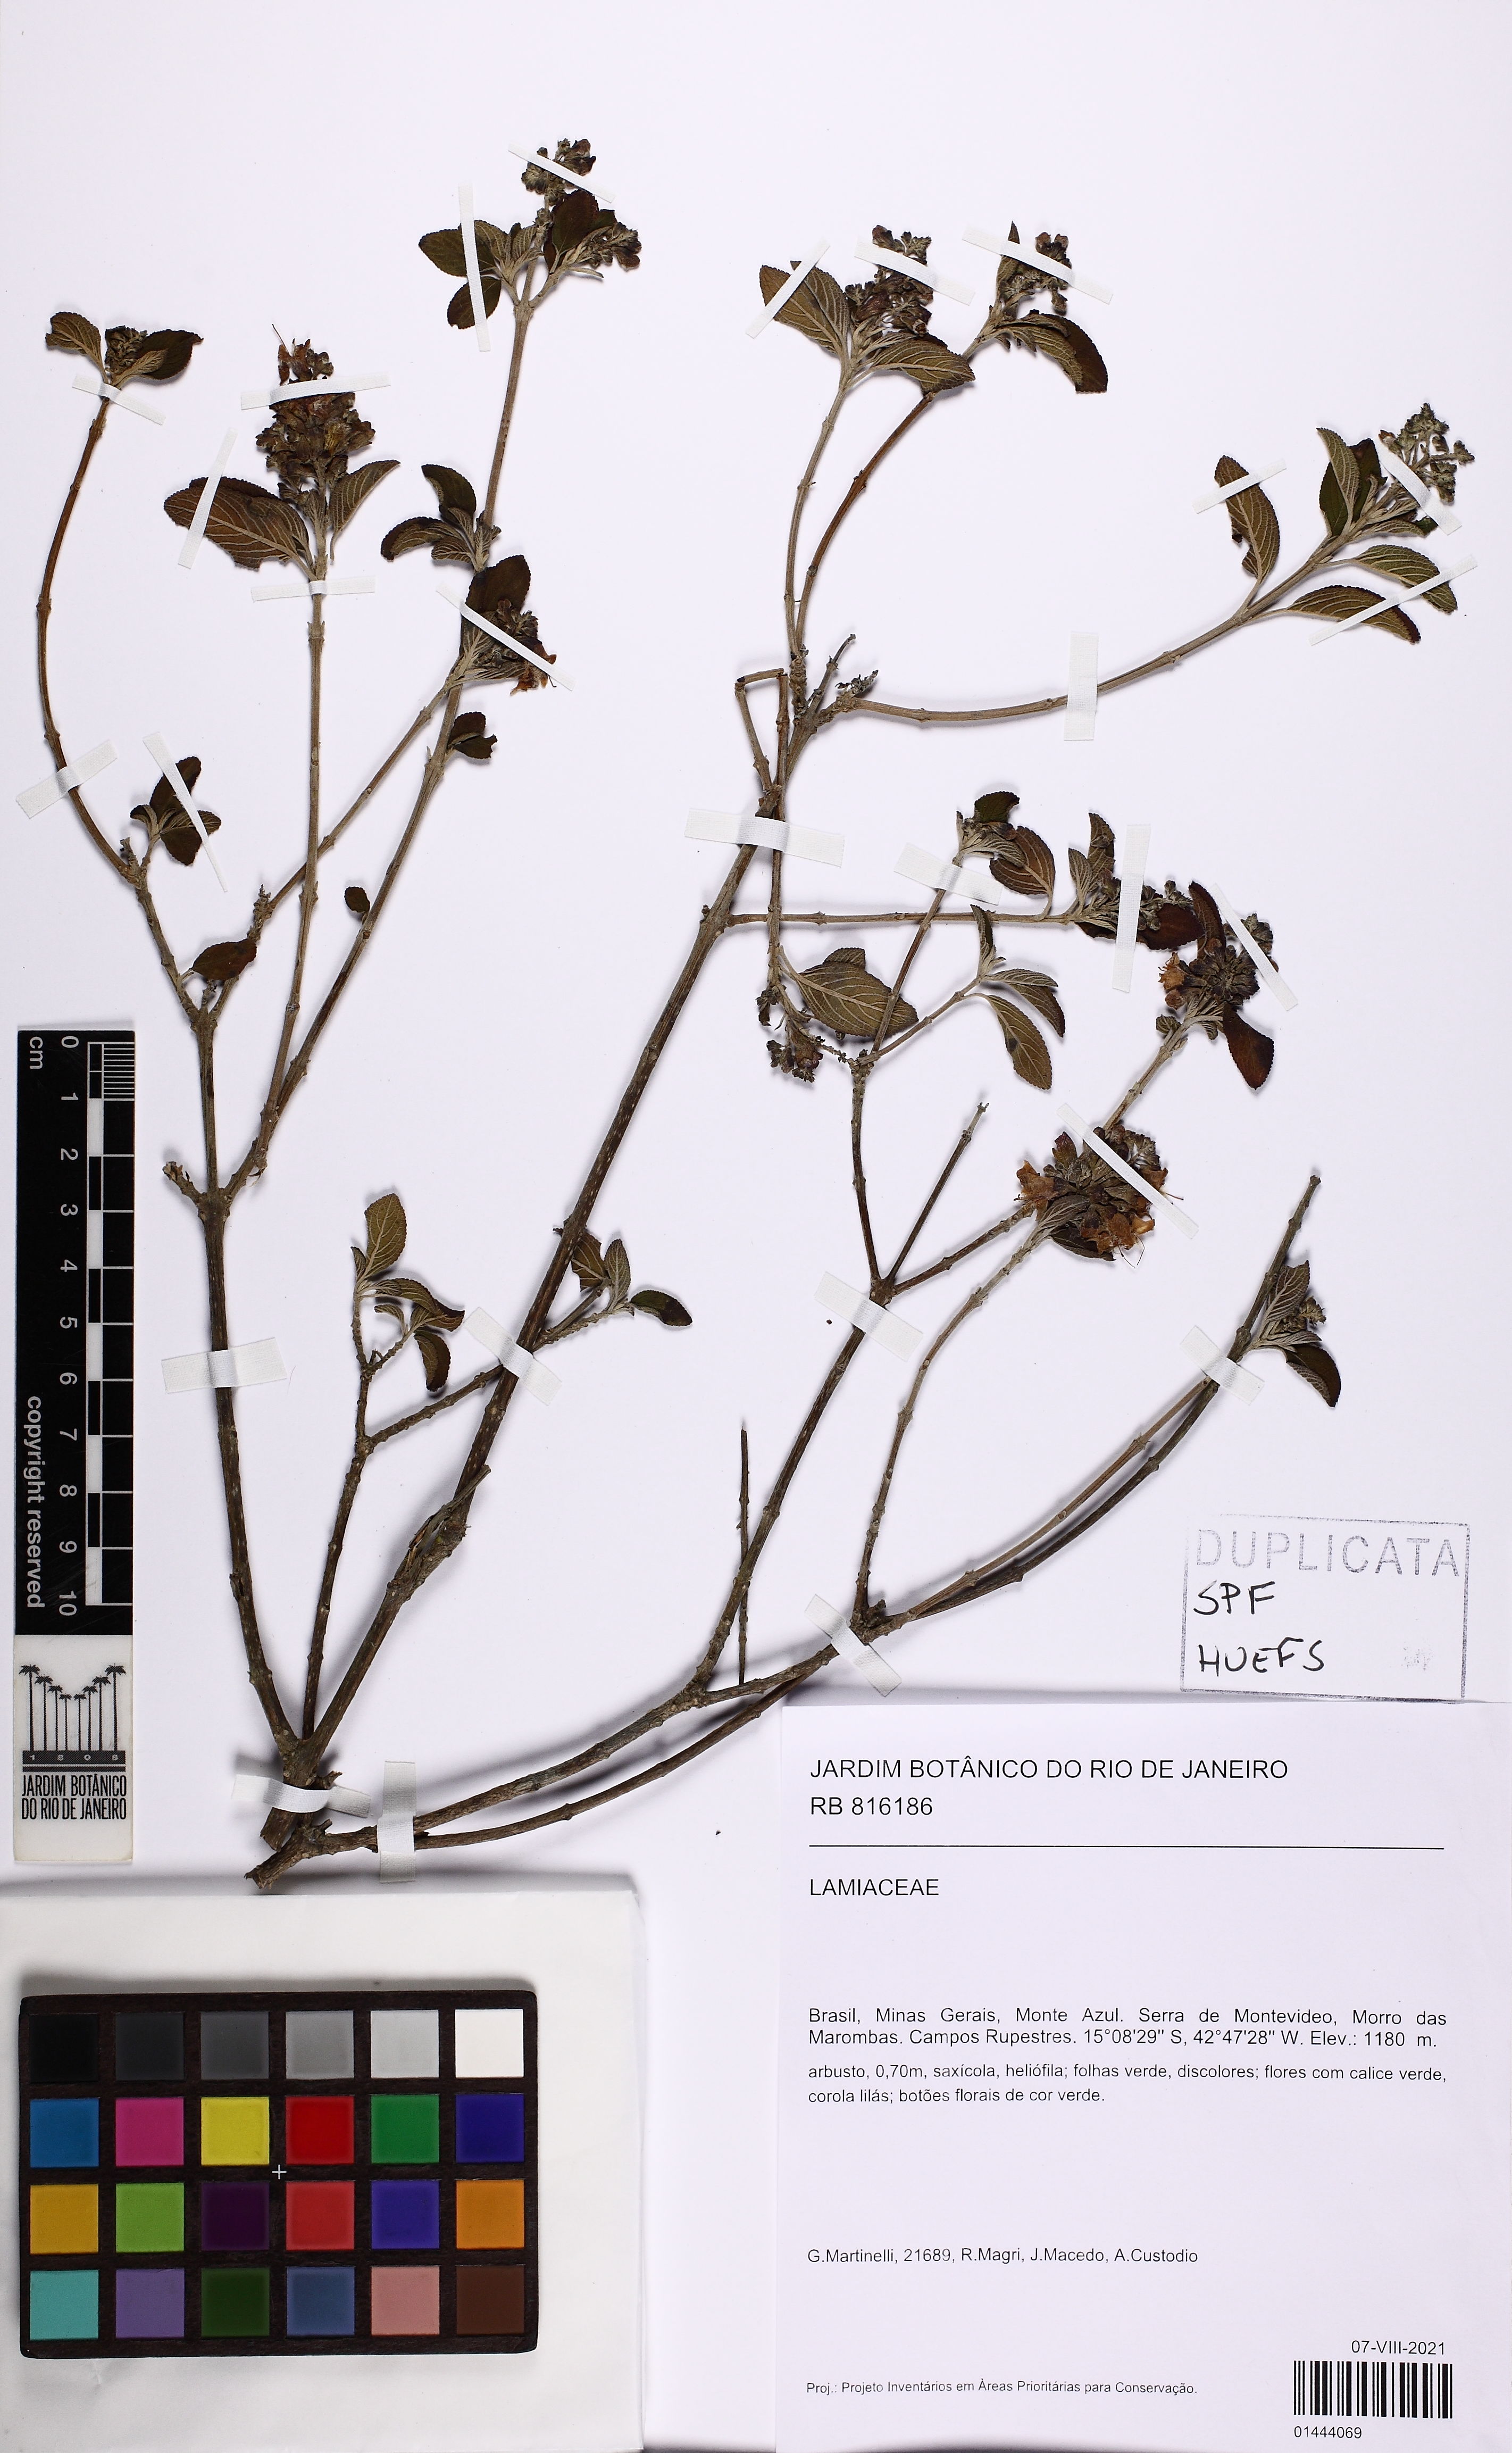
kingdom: Plantae
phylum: Tracheophyta
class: Magnoliopsida
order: Lamiales
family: Lamiaceae
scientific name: Lamiaceae
